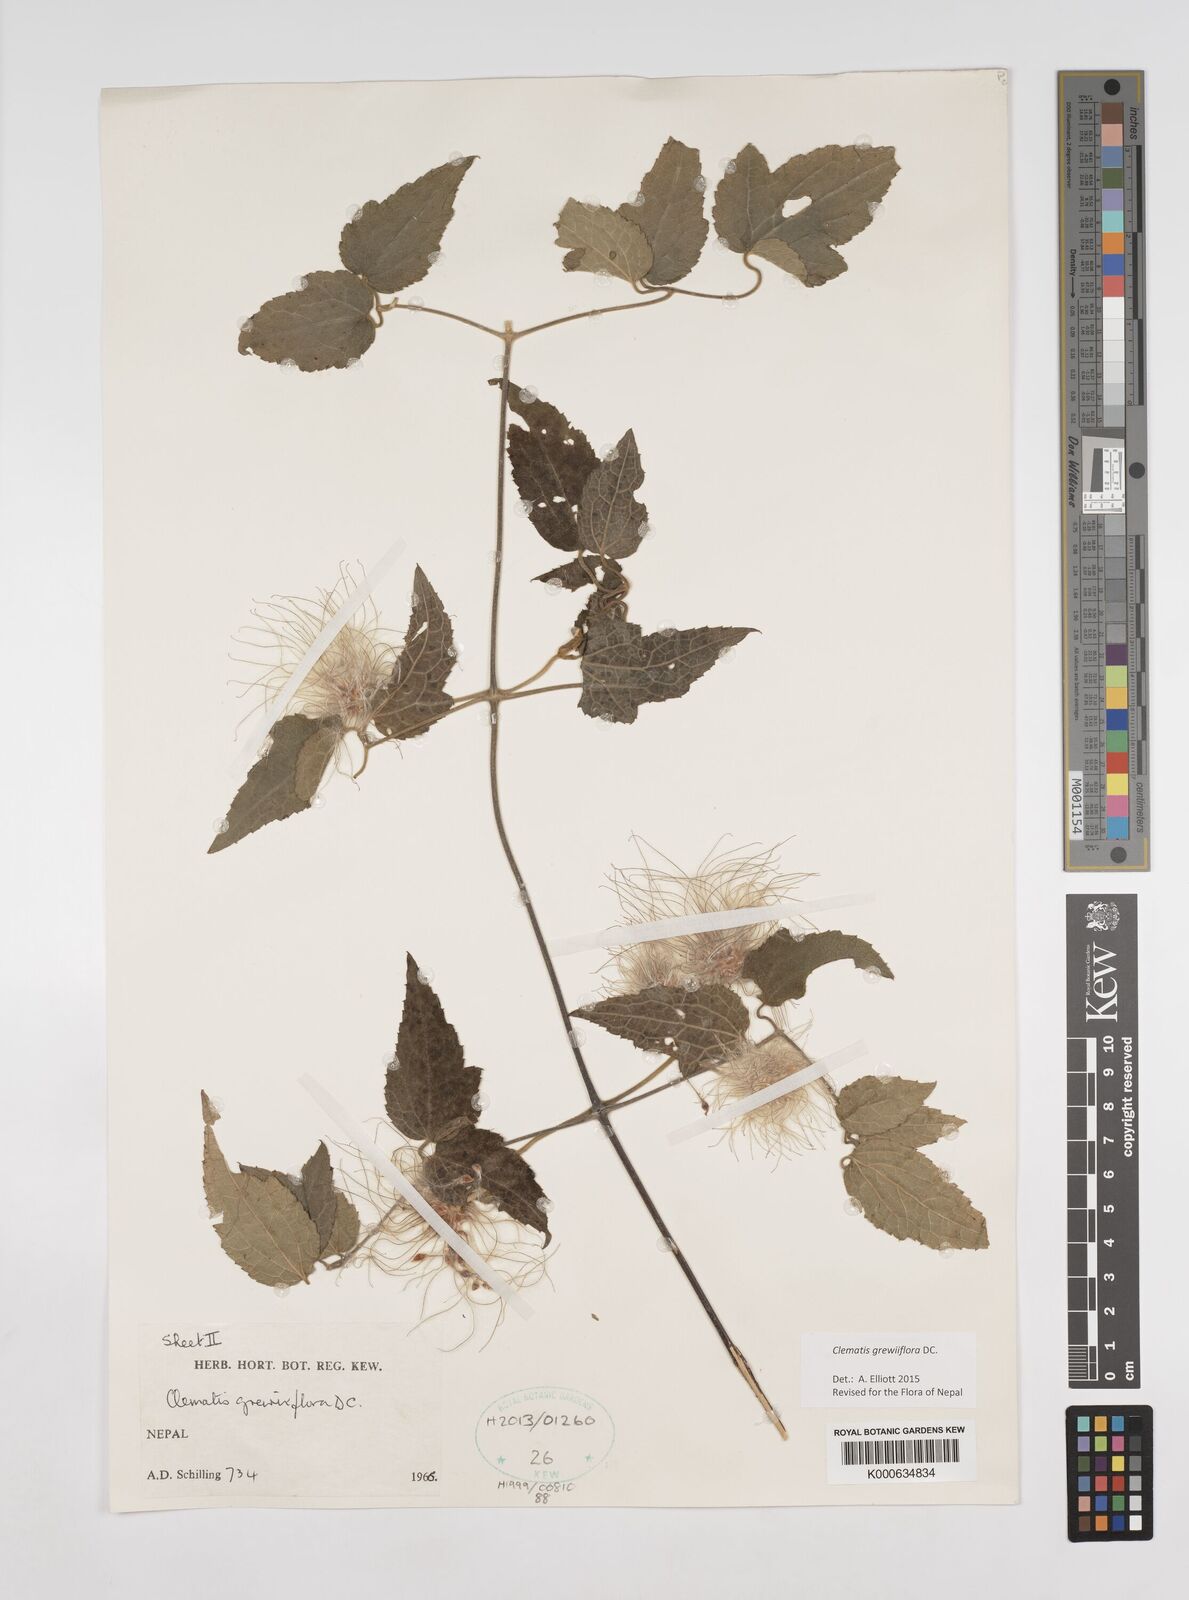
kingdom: Plantae
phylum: Tracheophyta
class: Magnoliopsida
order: Ranunculales
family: Ranunculaceae
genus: Clematis
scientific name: Clematis grewiiflora
